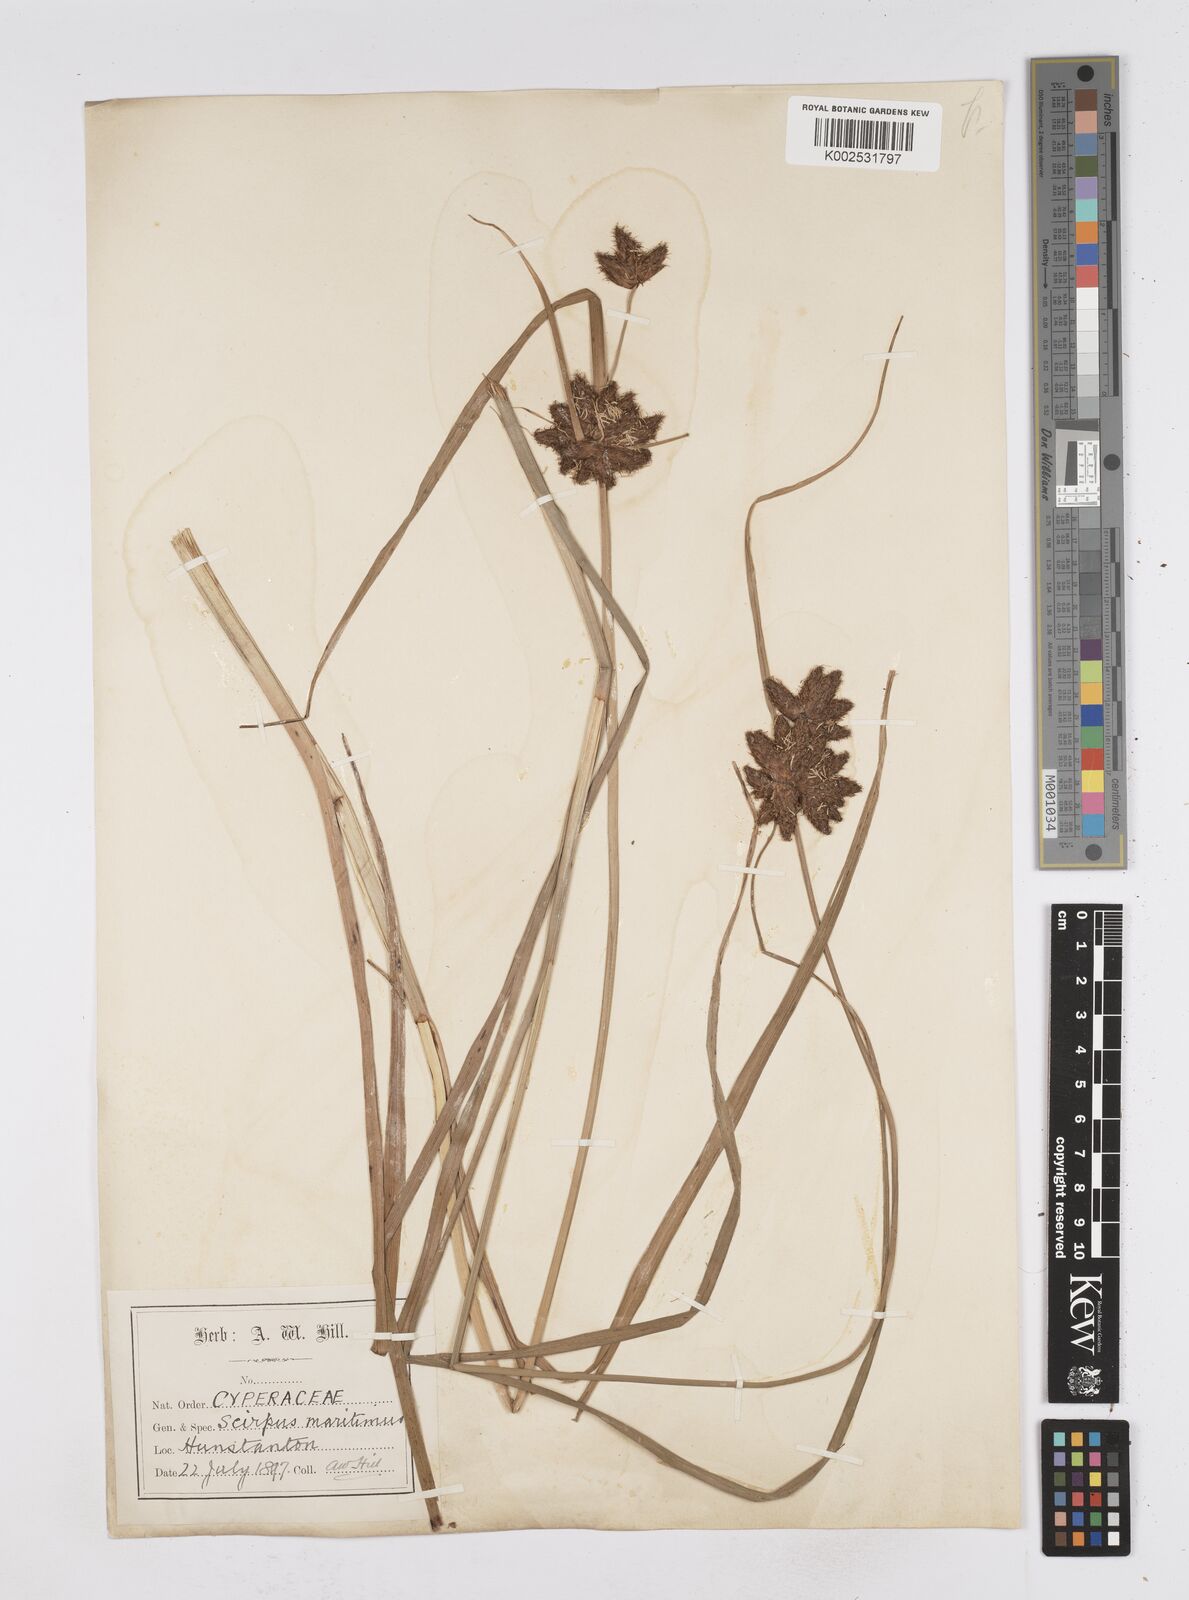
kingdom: Plantae
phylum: Tracheophyta
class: Liliopsida
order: Poales
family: Cyperaceae
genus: Bolboschoenus
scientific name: Bolboschoenus maritimus
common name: Sea club-rush
